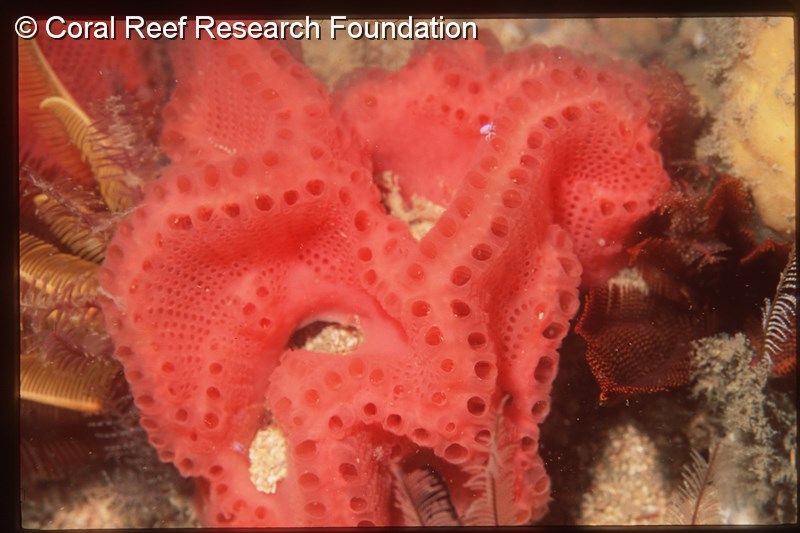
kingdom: Animalia
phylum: Chordata
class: Ascidiacea
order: Aplousobranchia
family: Holozoidae
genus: Sycozoa
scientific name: Sycozoa
